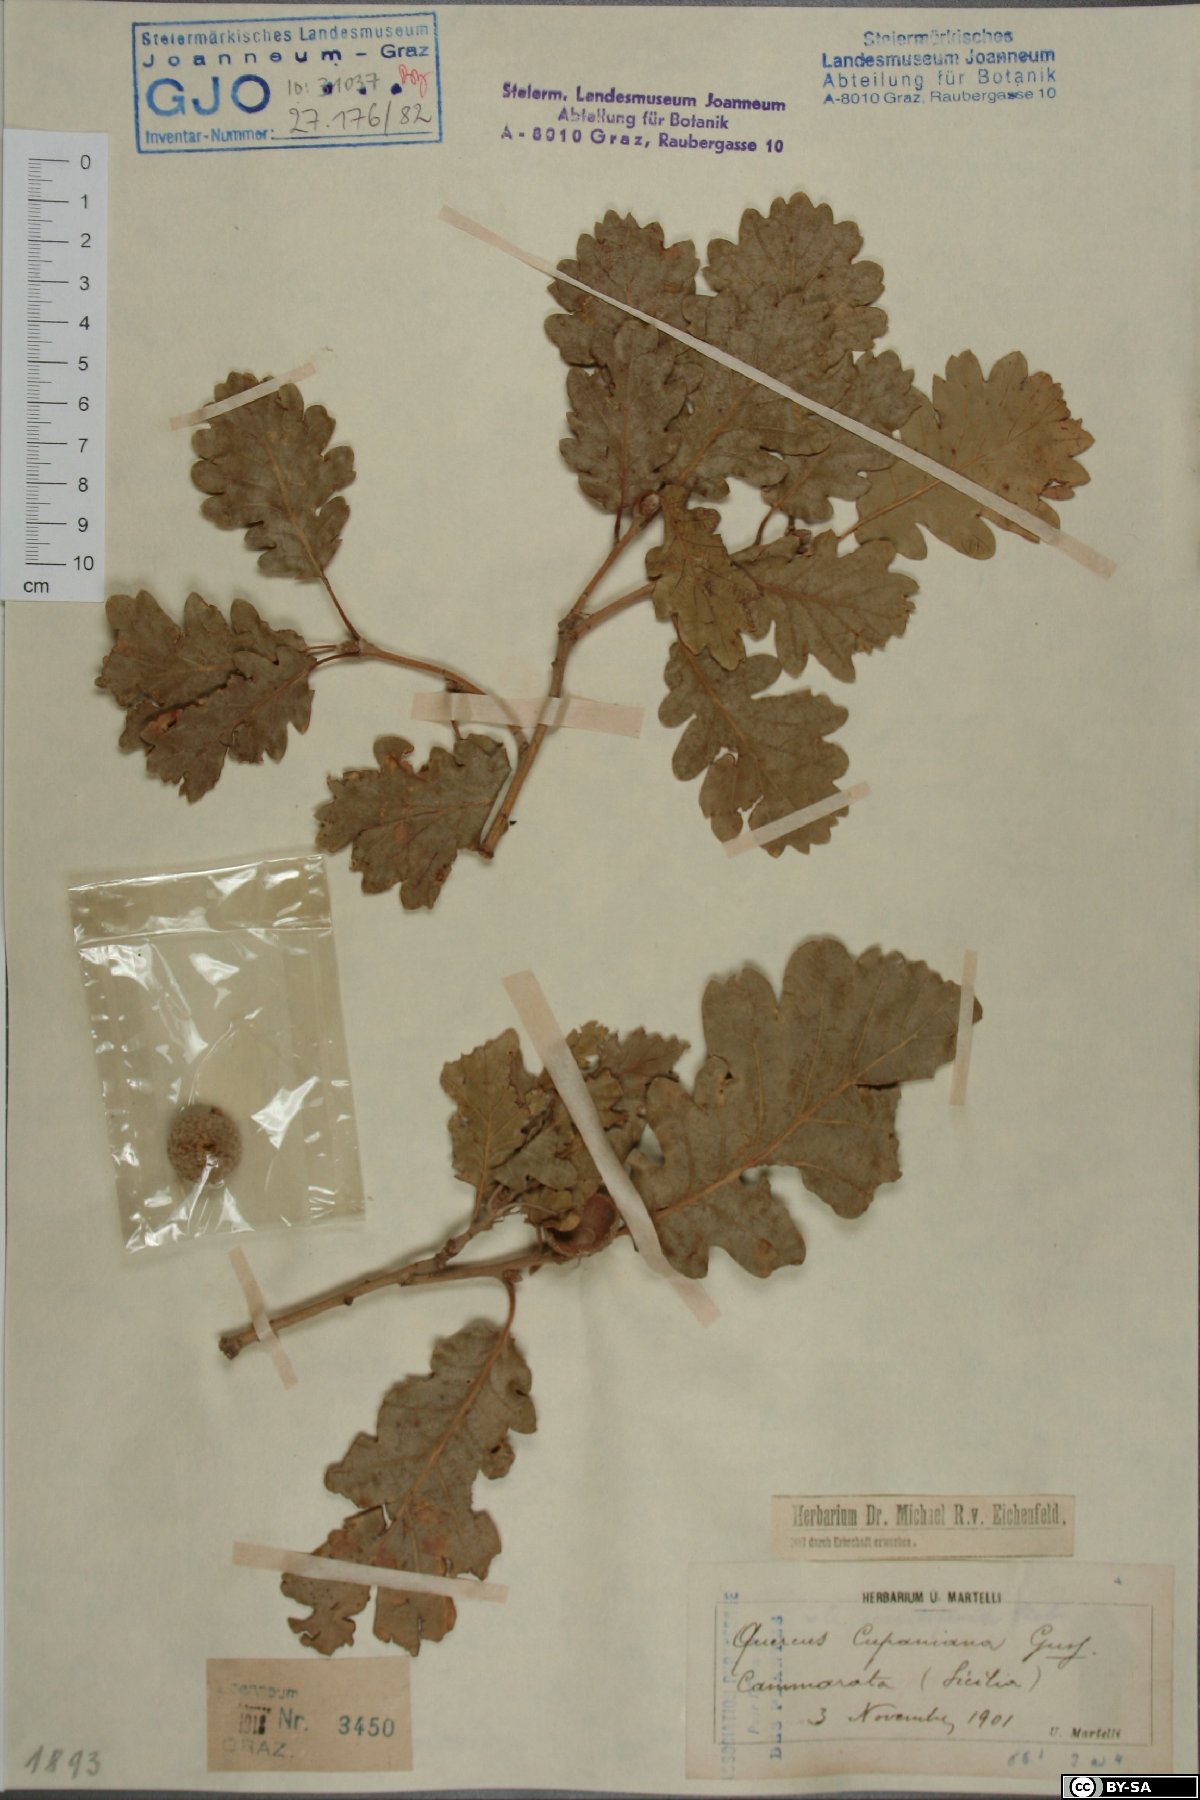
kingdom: Plantae
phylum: Tracheophyta
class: Magnoliopsida
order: Fagales
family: Fagaceae
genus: Quercus
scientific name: Quercus pubescens
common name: Downy oak
